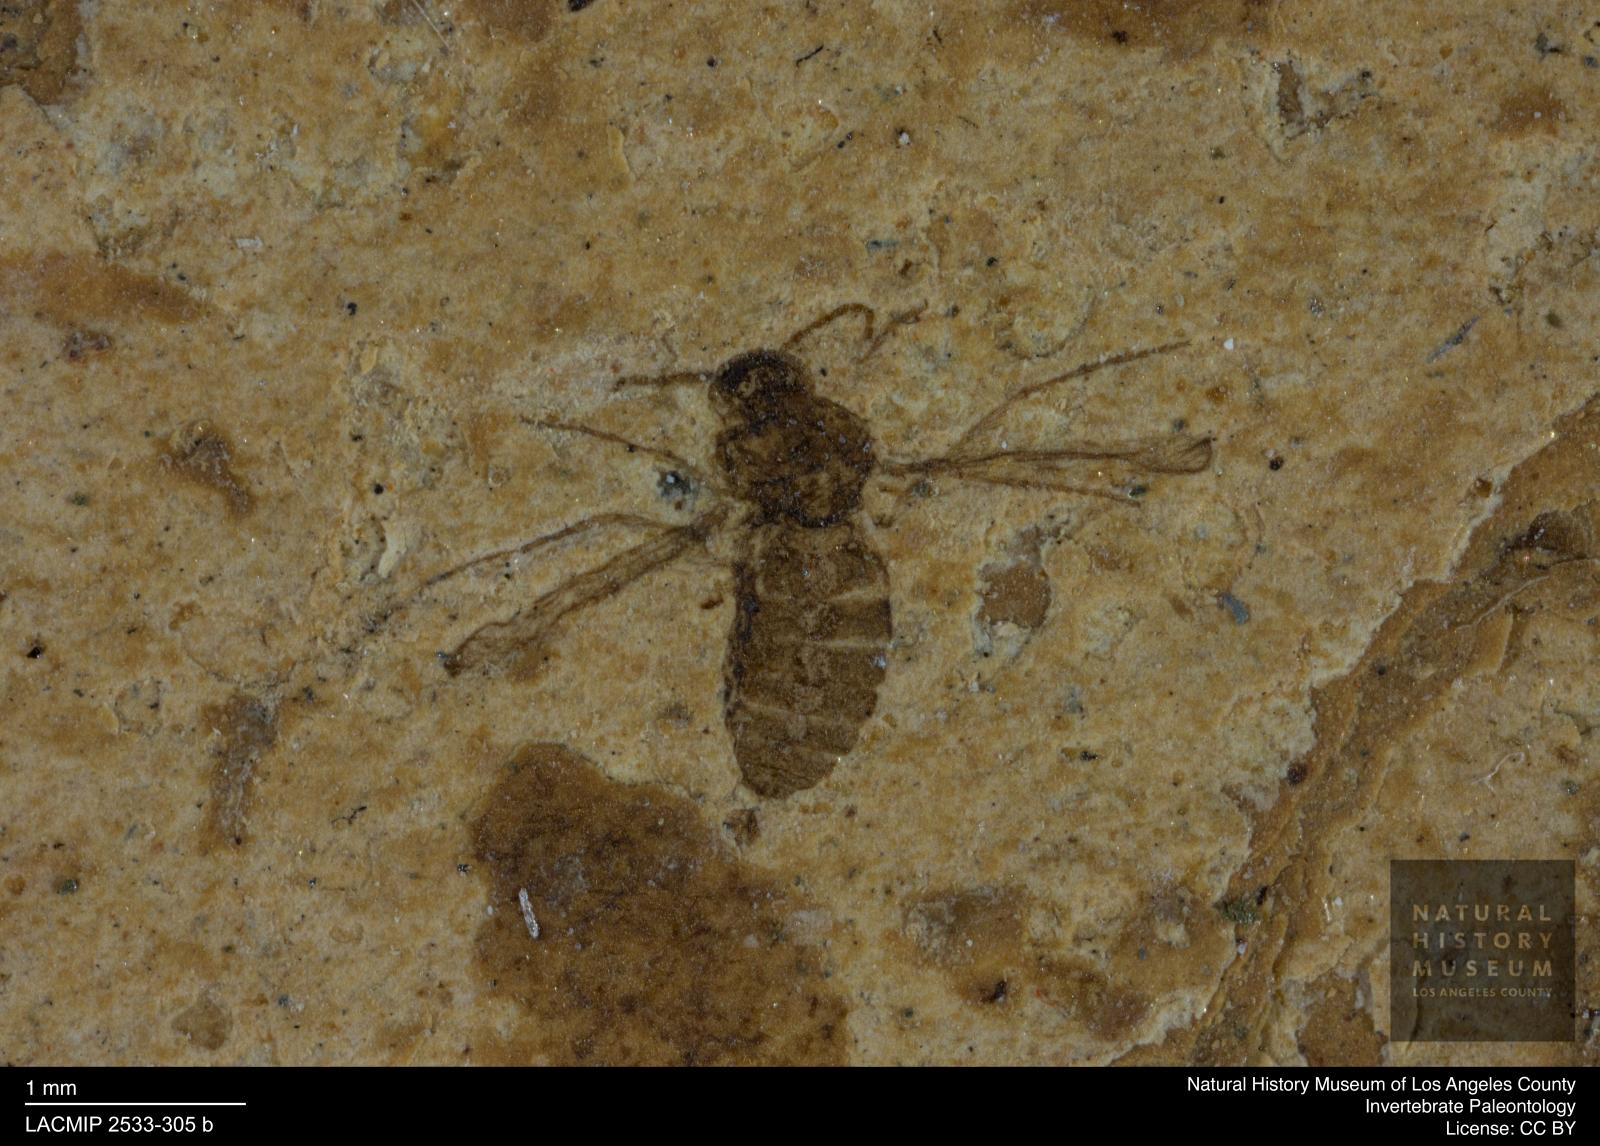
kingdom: Animalia
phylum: Arthropoda
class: Insecta
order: Diptera
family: Ceratopogonidae
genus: Atrichopogon
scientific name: Atrichopogon brunnescens
